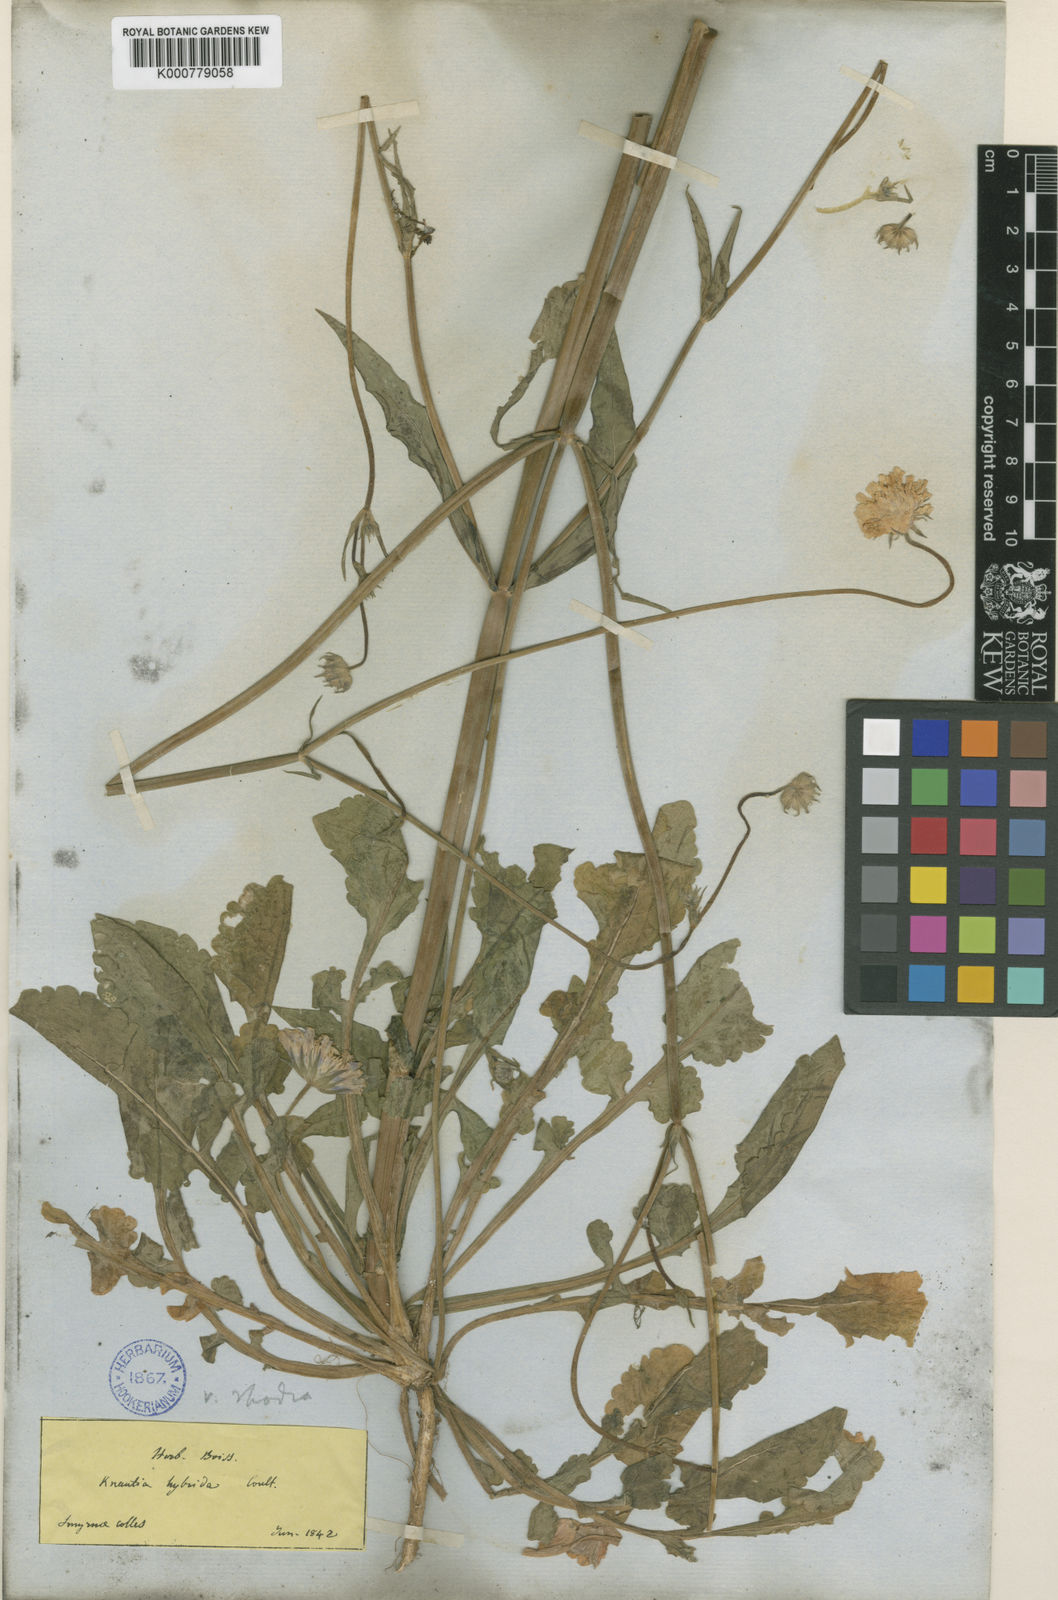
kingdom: Plantae
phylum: Tracheophyta
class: Magnoliopsida
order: Dipsacales
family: Caprifoliaceae
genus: Knautia
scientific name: Knautia
